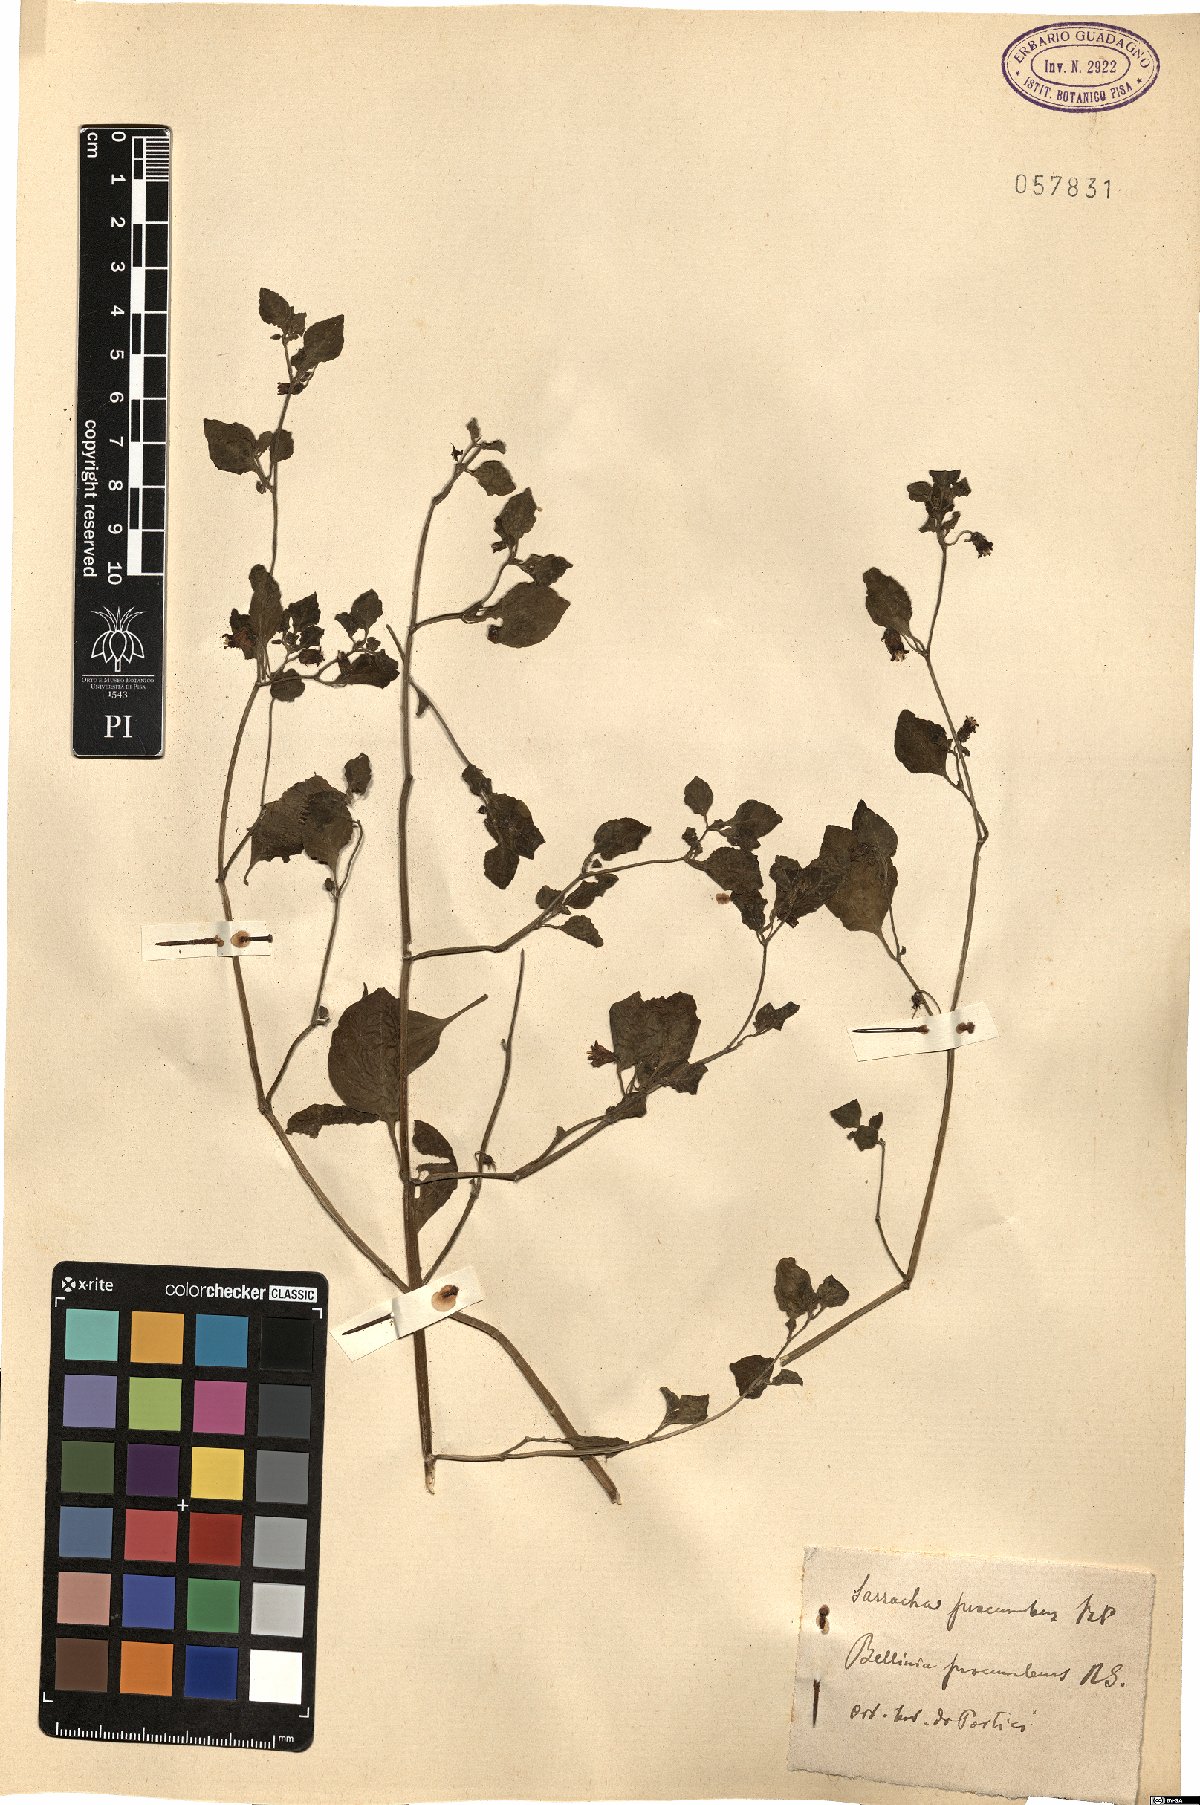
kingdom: Plantae
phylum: Tracheophyta
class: Magnoliopsida
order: Solanales
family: Solanaceae
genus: Jaltomata
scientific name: Jaltomata procumbens
